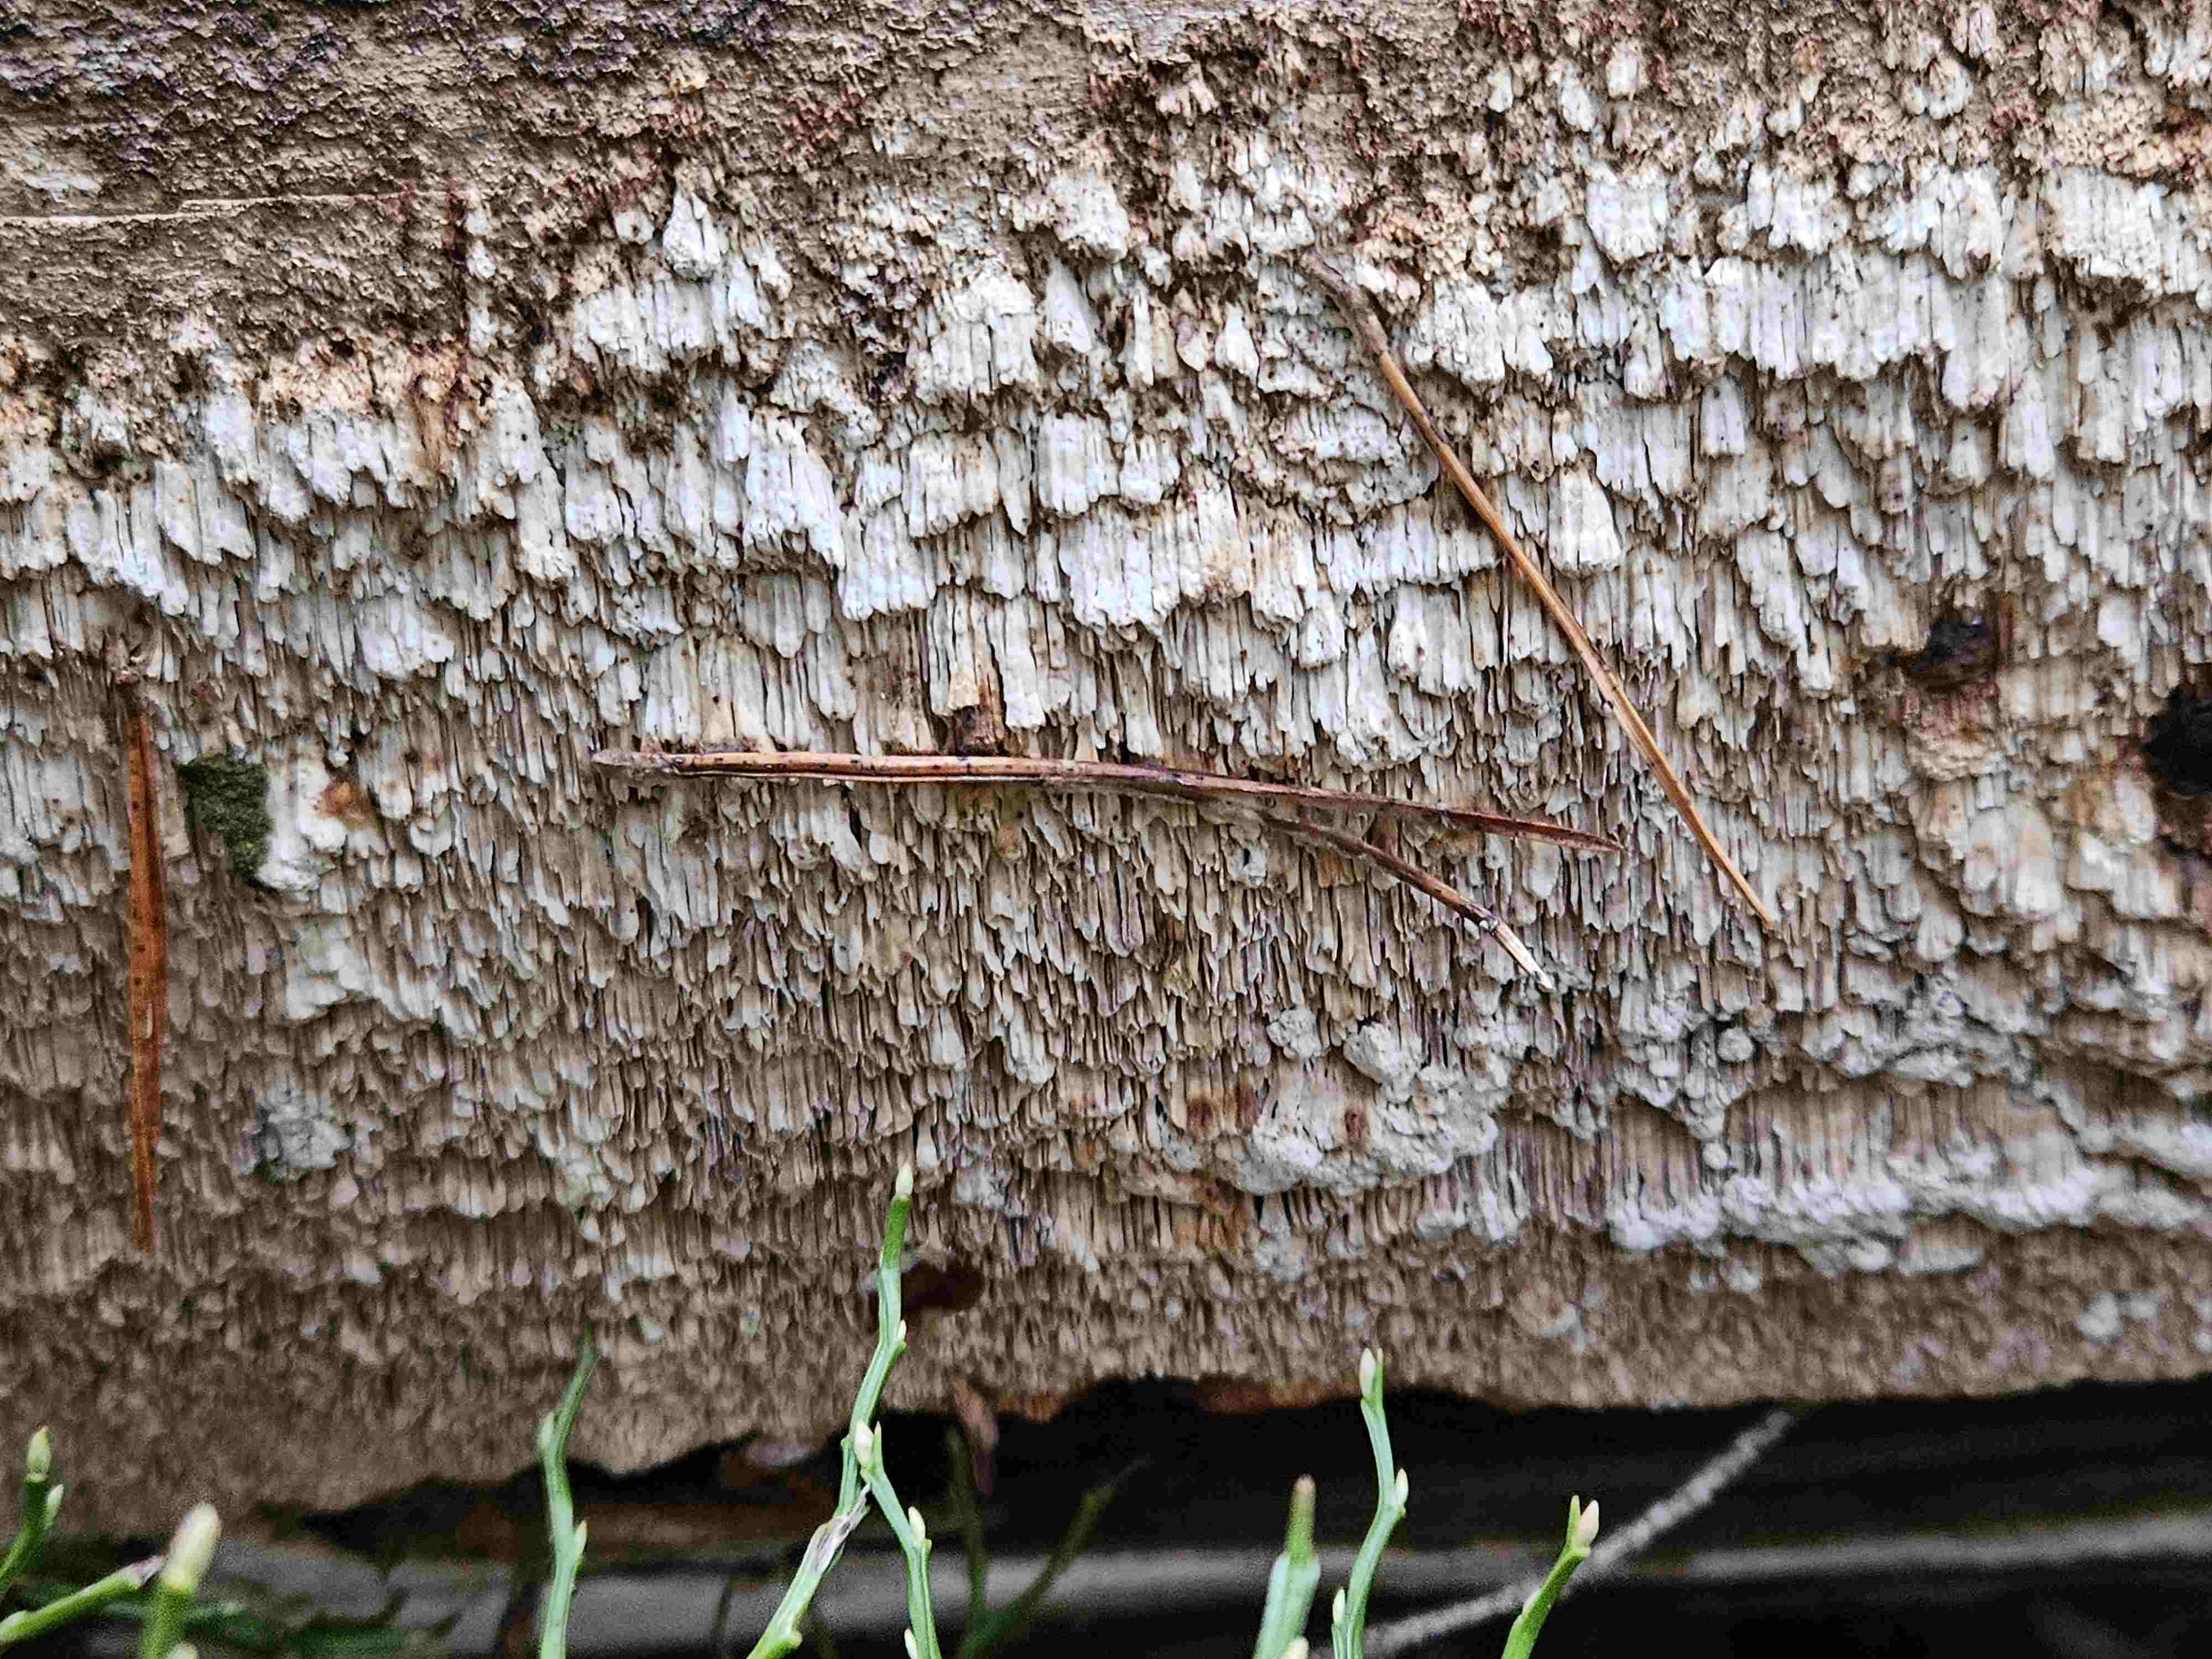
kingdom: Fungi
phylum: Basidiomycota
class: Agaricomycetes
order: Polyporales
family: Fomitopsidaceae
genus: Amyloporia
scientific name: Amyloporia
